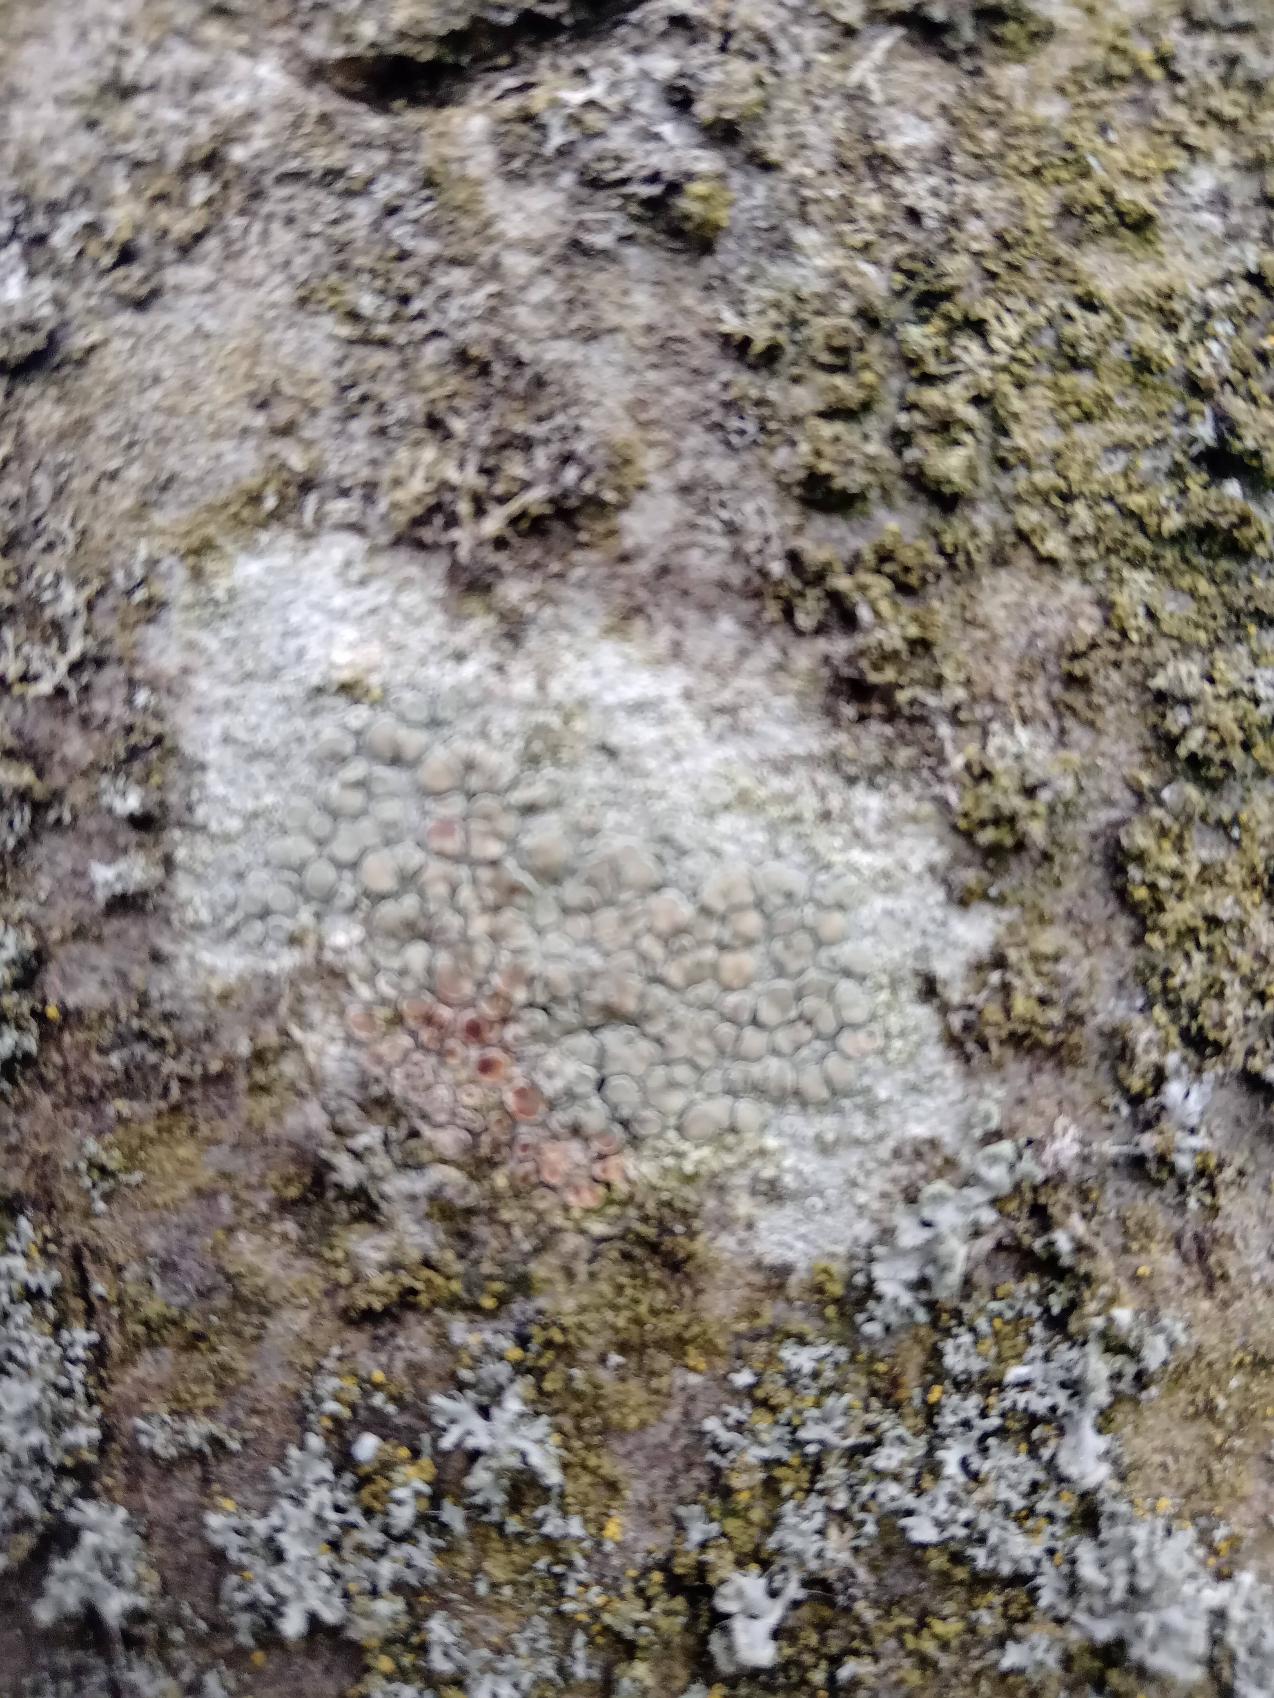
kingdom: Fungi
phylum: Ascomycota
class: Lecanoromycetes
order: Lecanorales
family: Lecanoraceae
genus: Lecanora
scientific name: Lecanora
